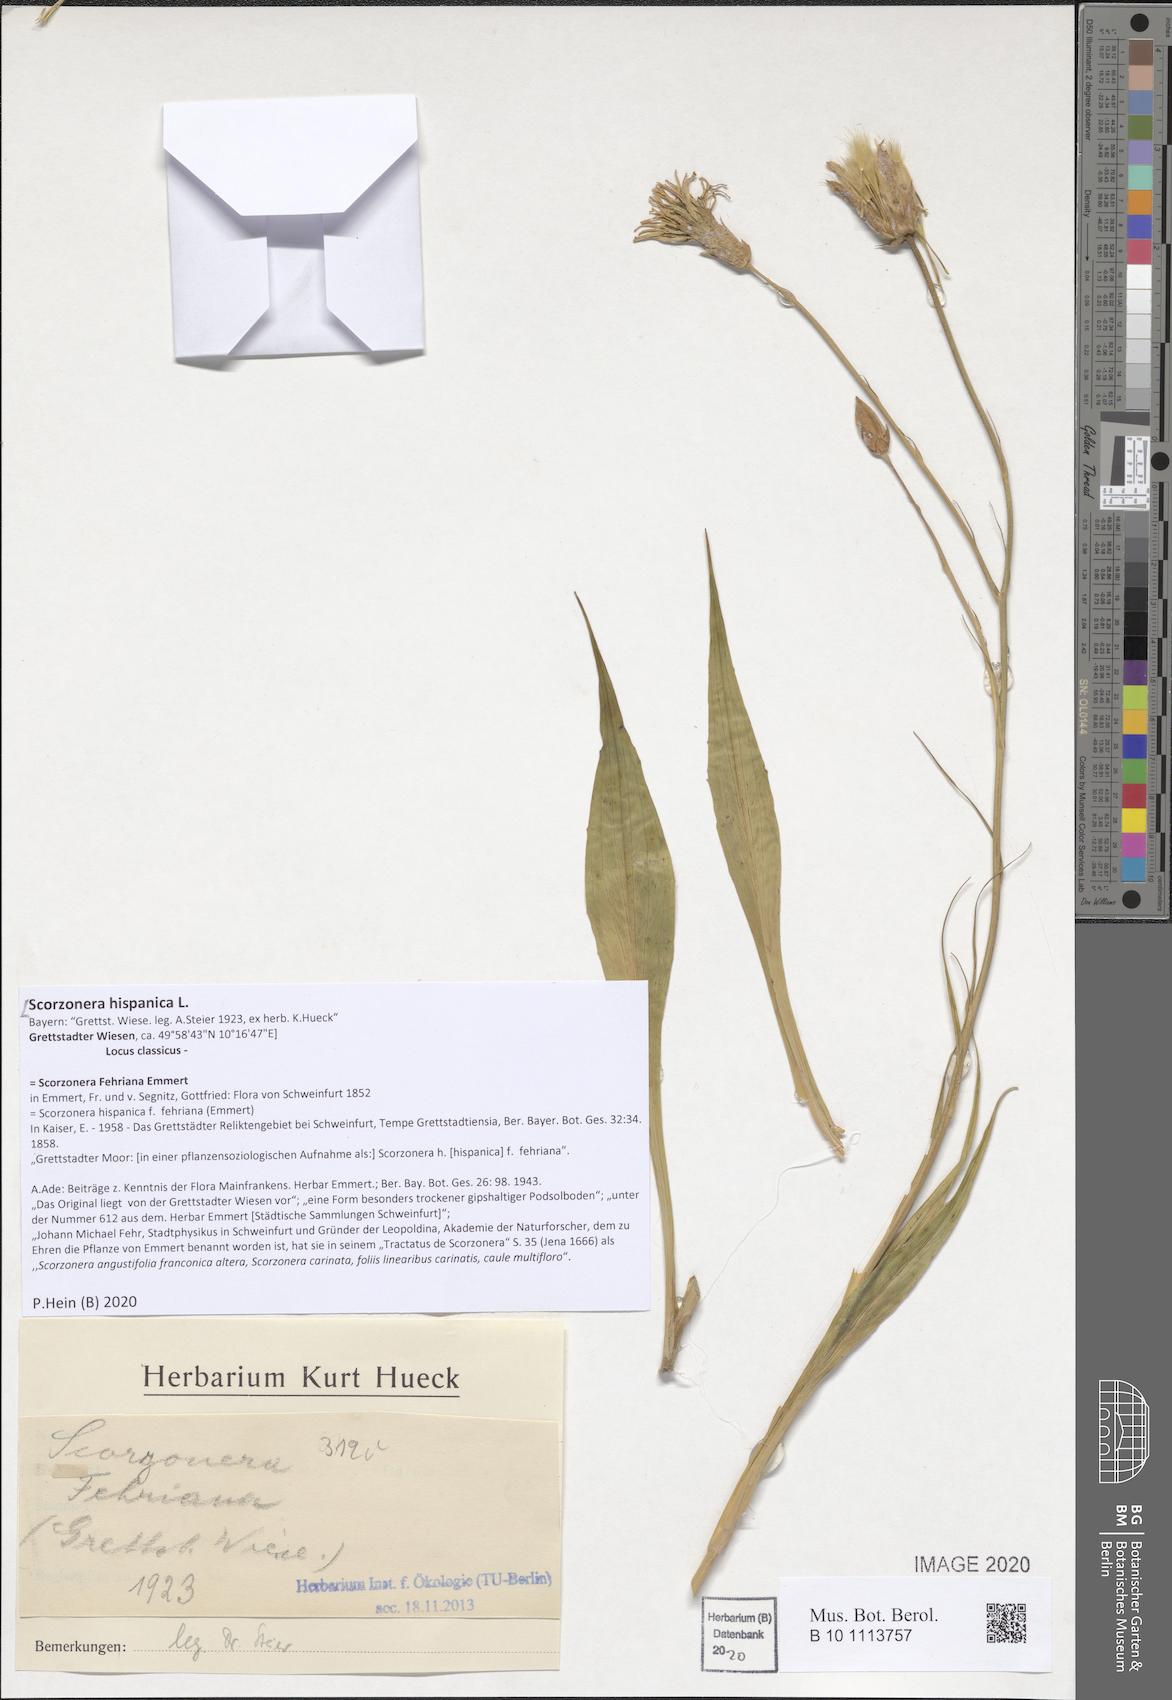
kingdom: Plantae
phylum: Tracheophyta
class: Magnoliopsida
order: Asterales
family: Asteraceae
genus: Pseudopodospermum
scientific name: Pseudopodospermum hispanicum
